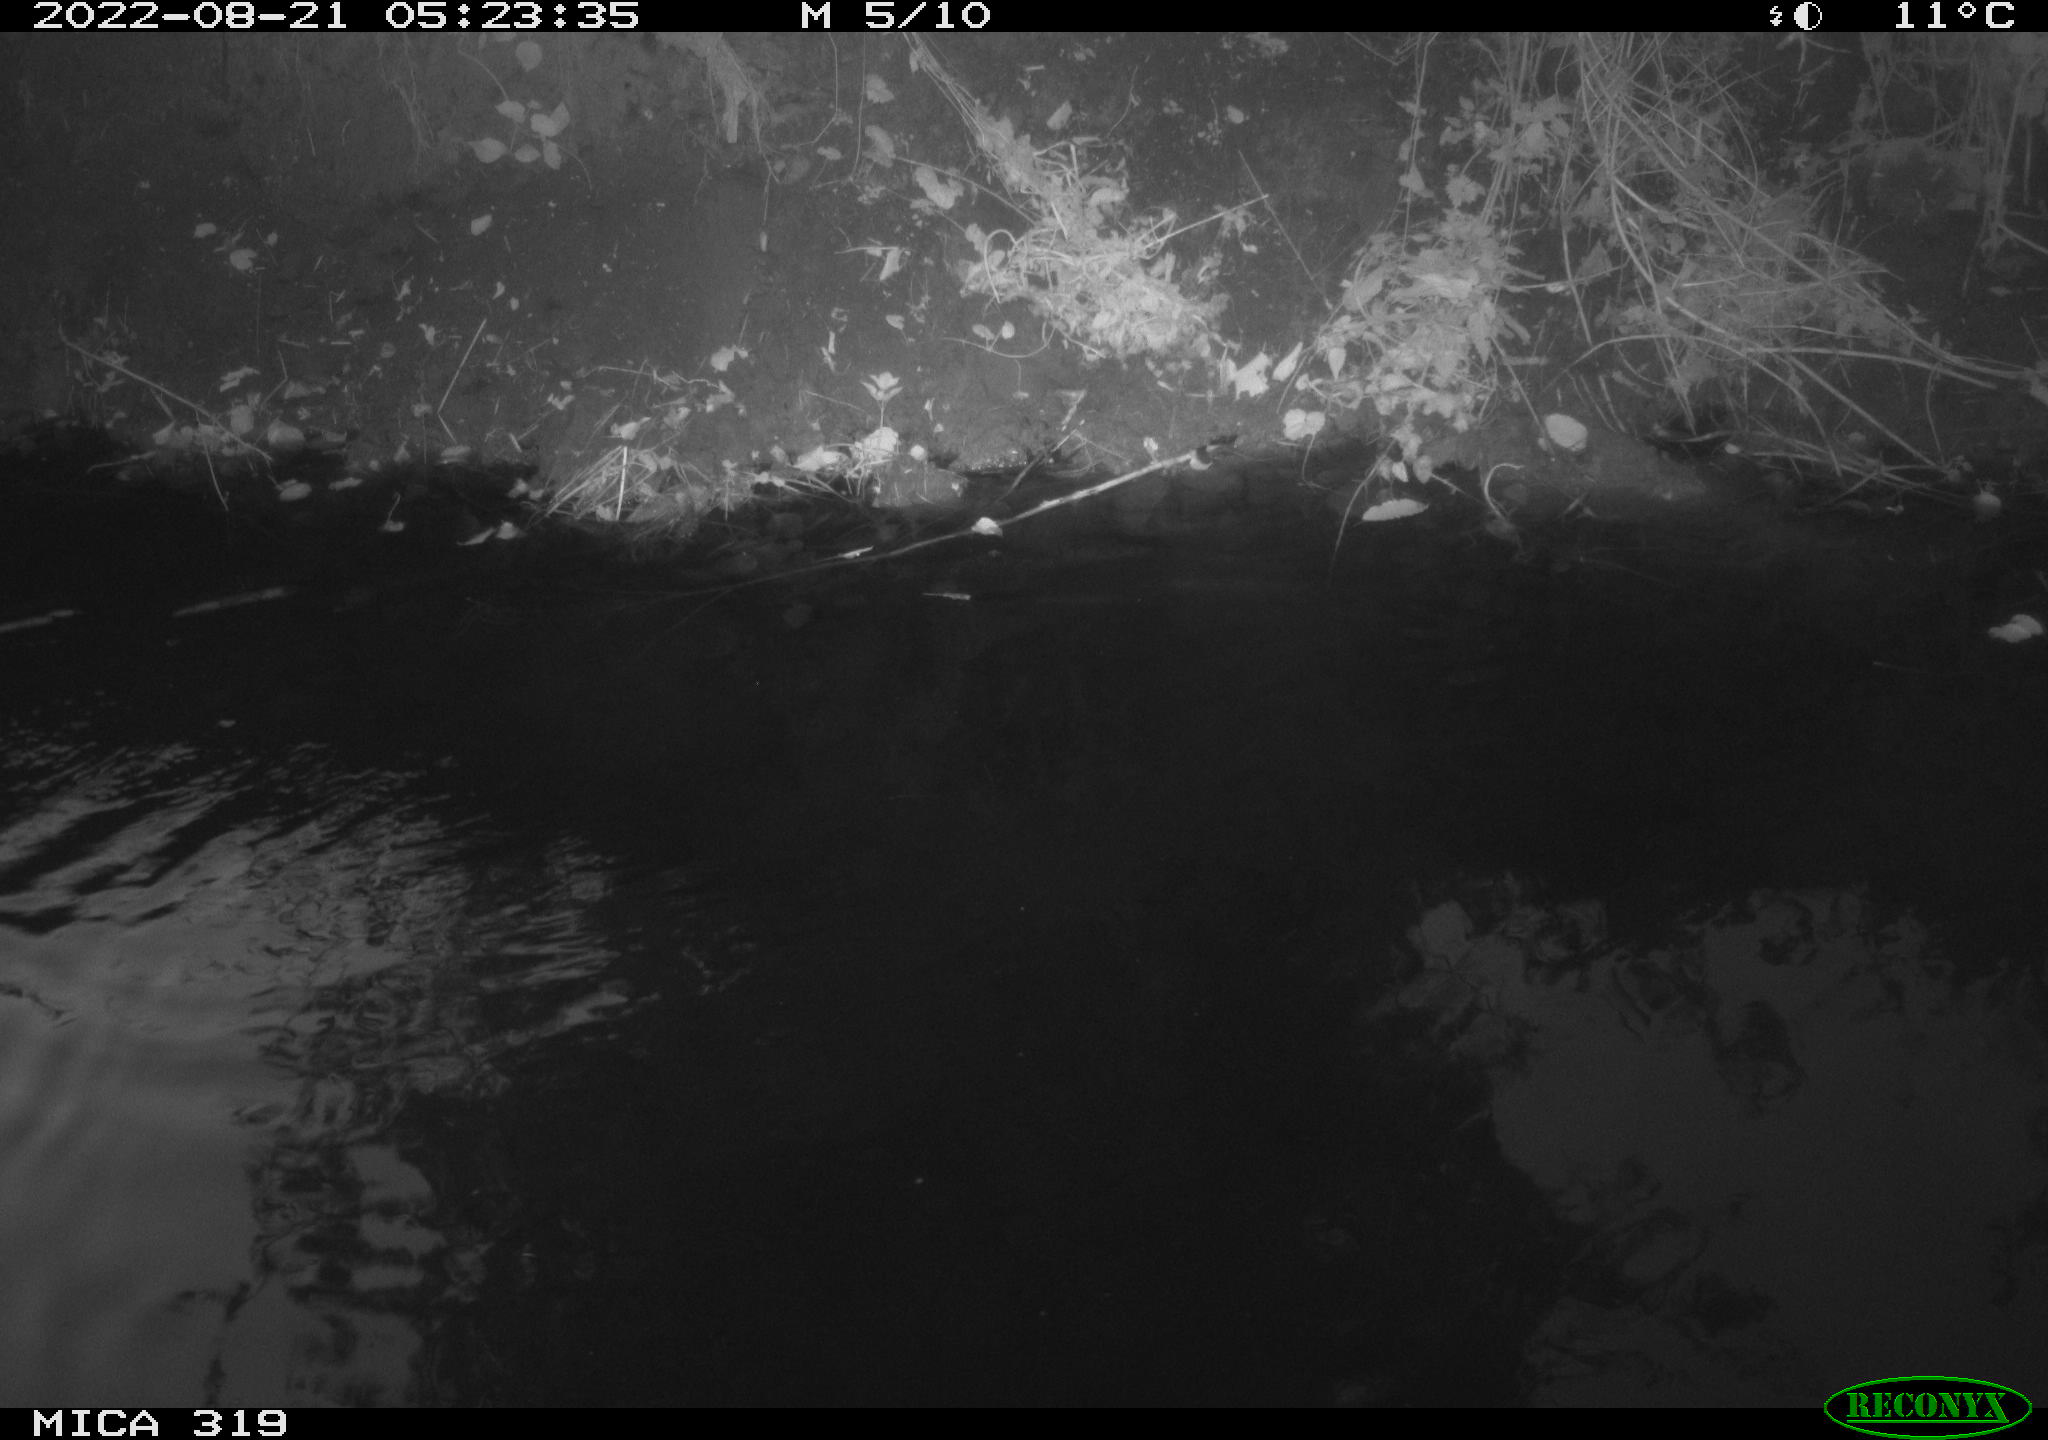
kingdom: Animalia
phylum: Chordata
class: Aves
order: Anseriformes
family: Anatidae
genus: Anas
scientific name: Anas
